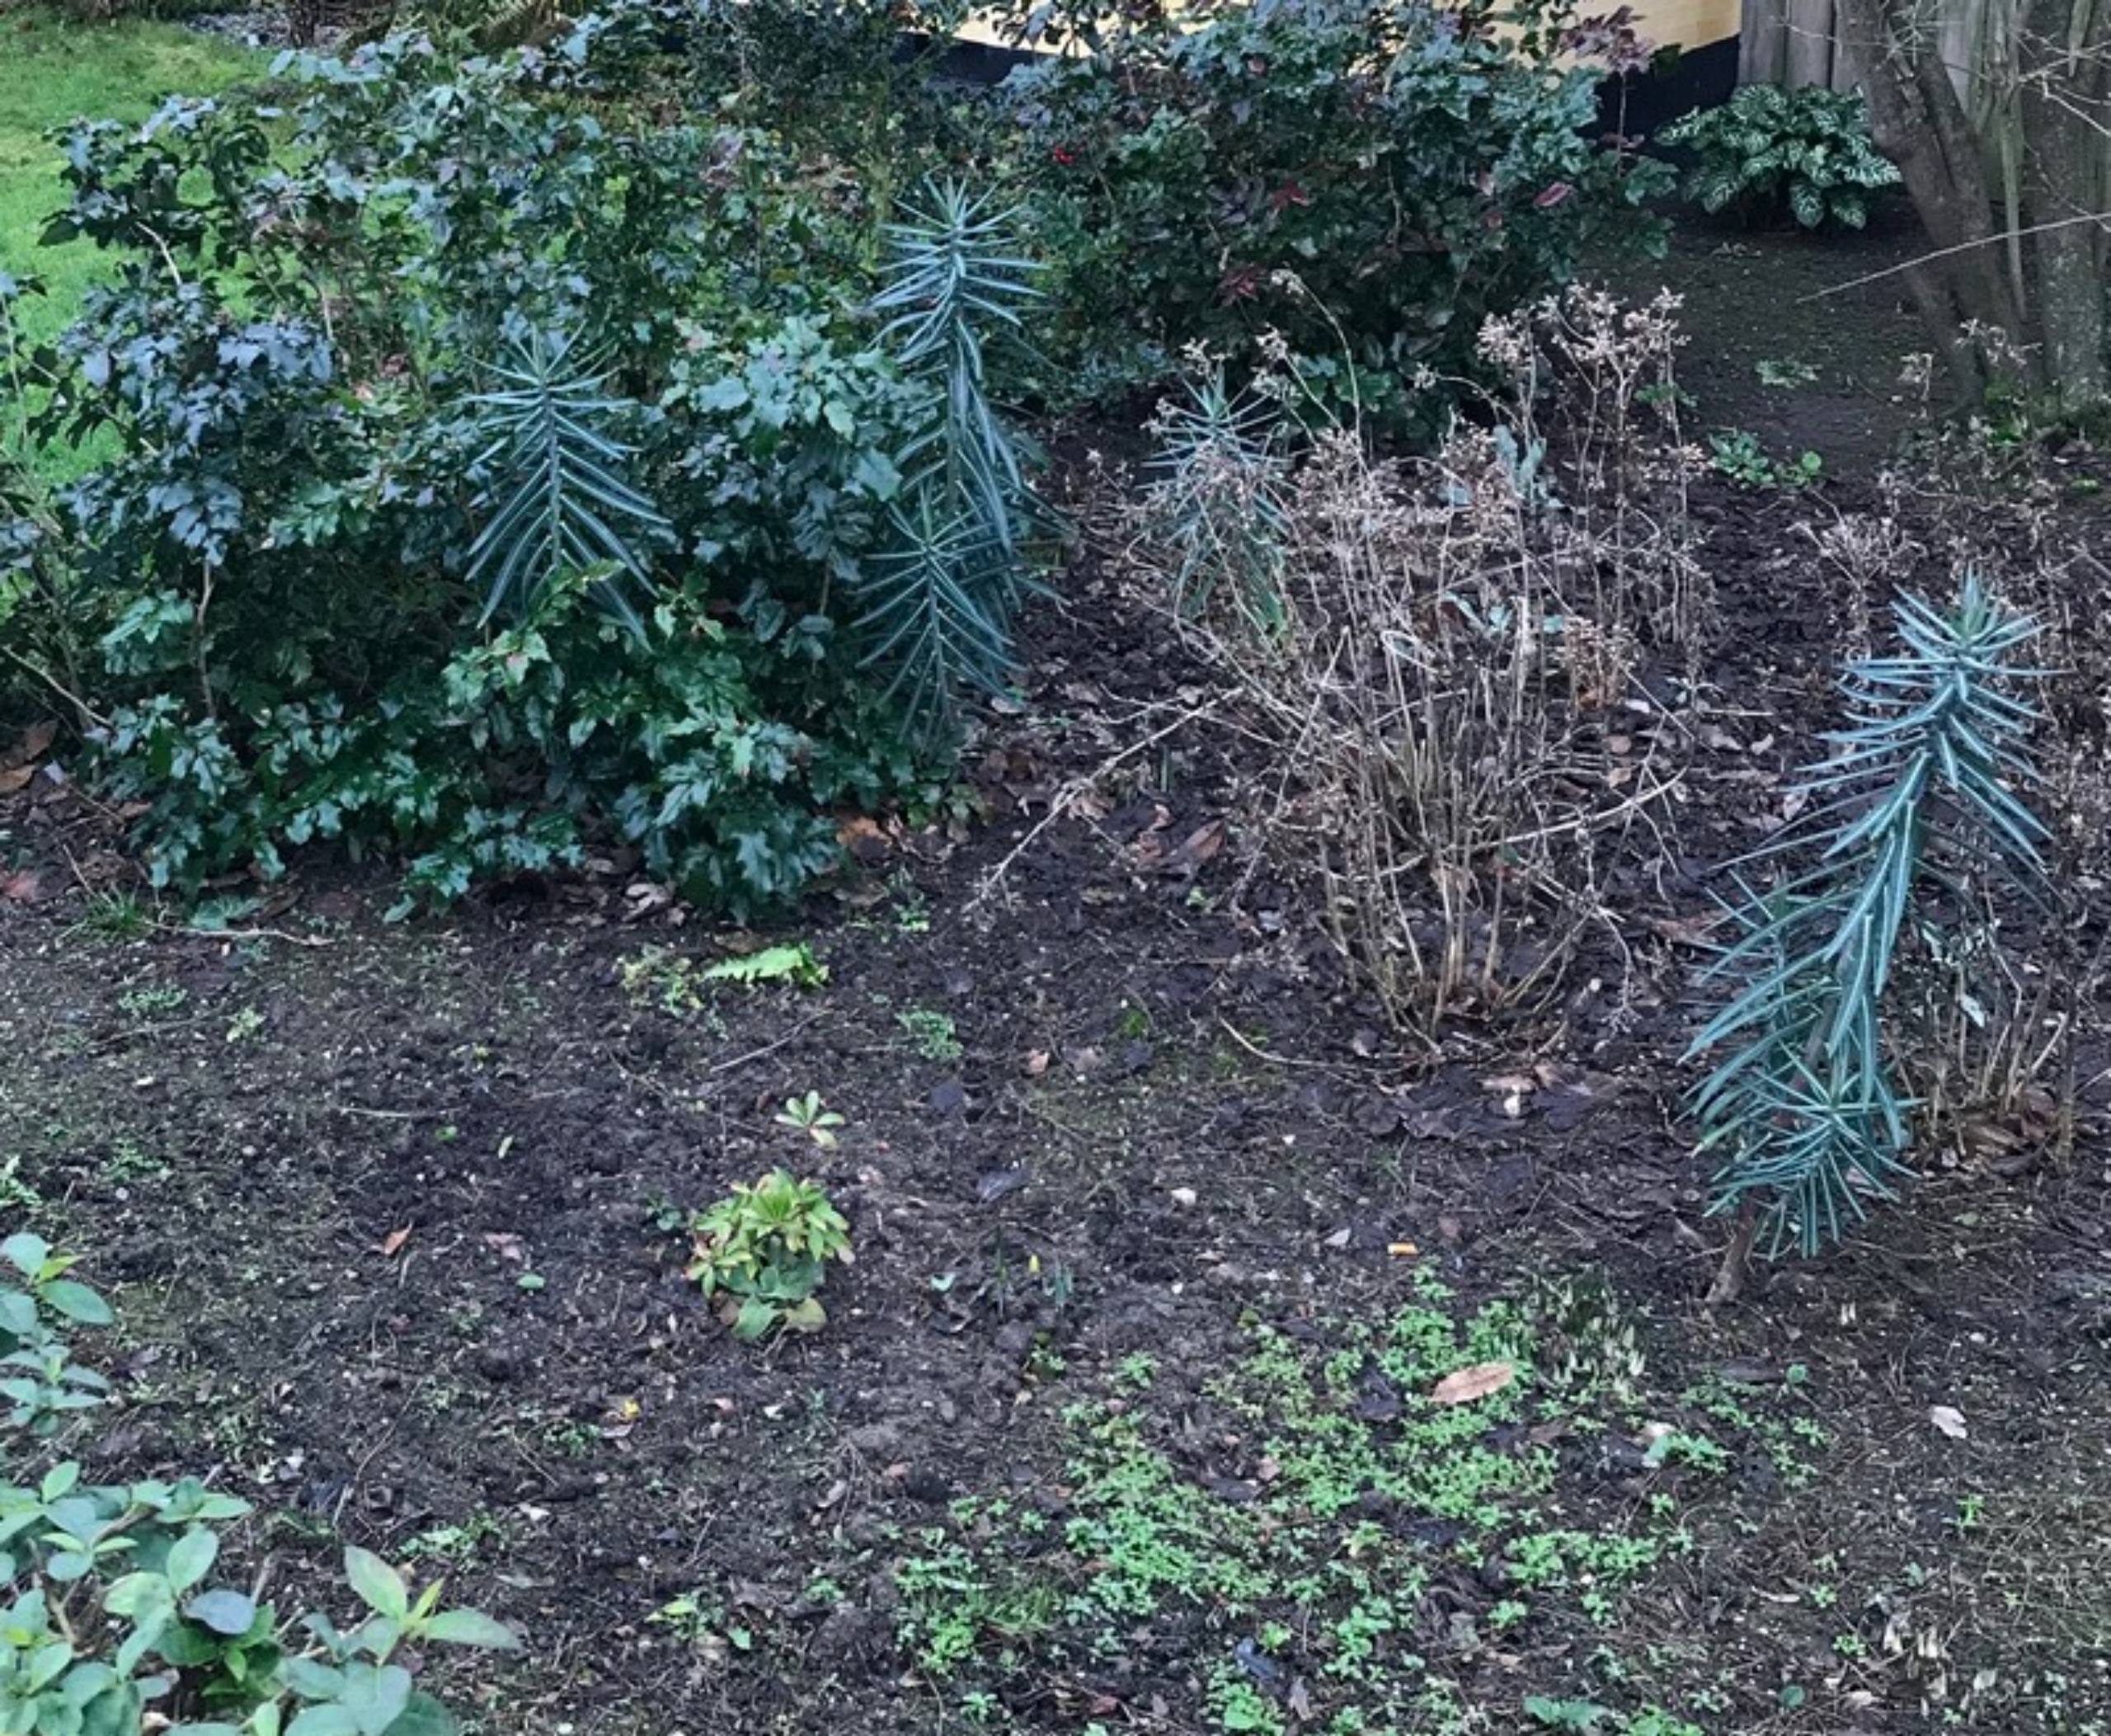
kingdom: Plantae
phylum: Tracheophyta
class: Magnoliopsida
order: Malpighiales
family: Euphorbiaceae
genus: Euphorbia
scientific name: Euphorbia lathyris
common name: Kors-vortemælk
